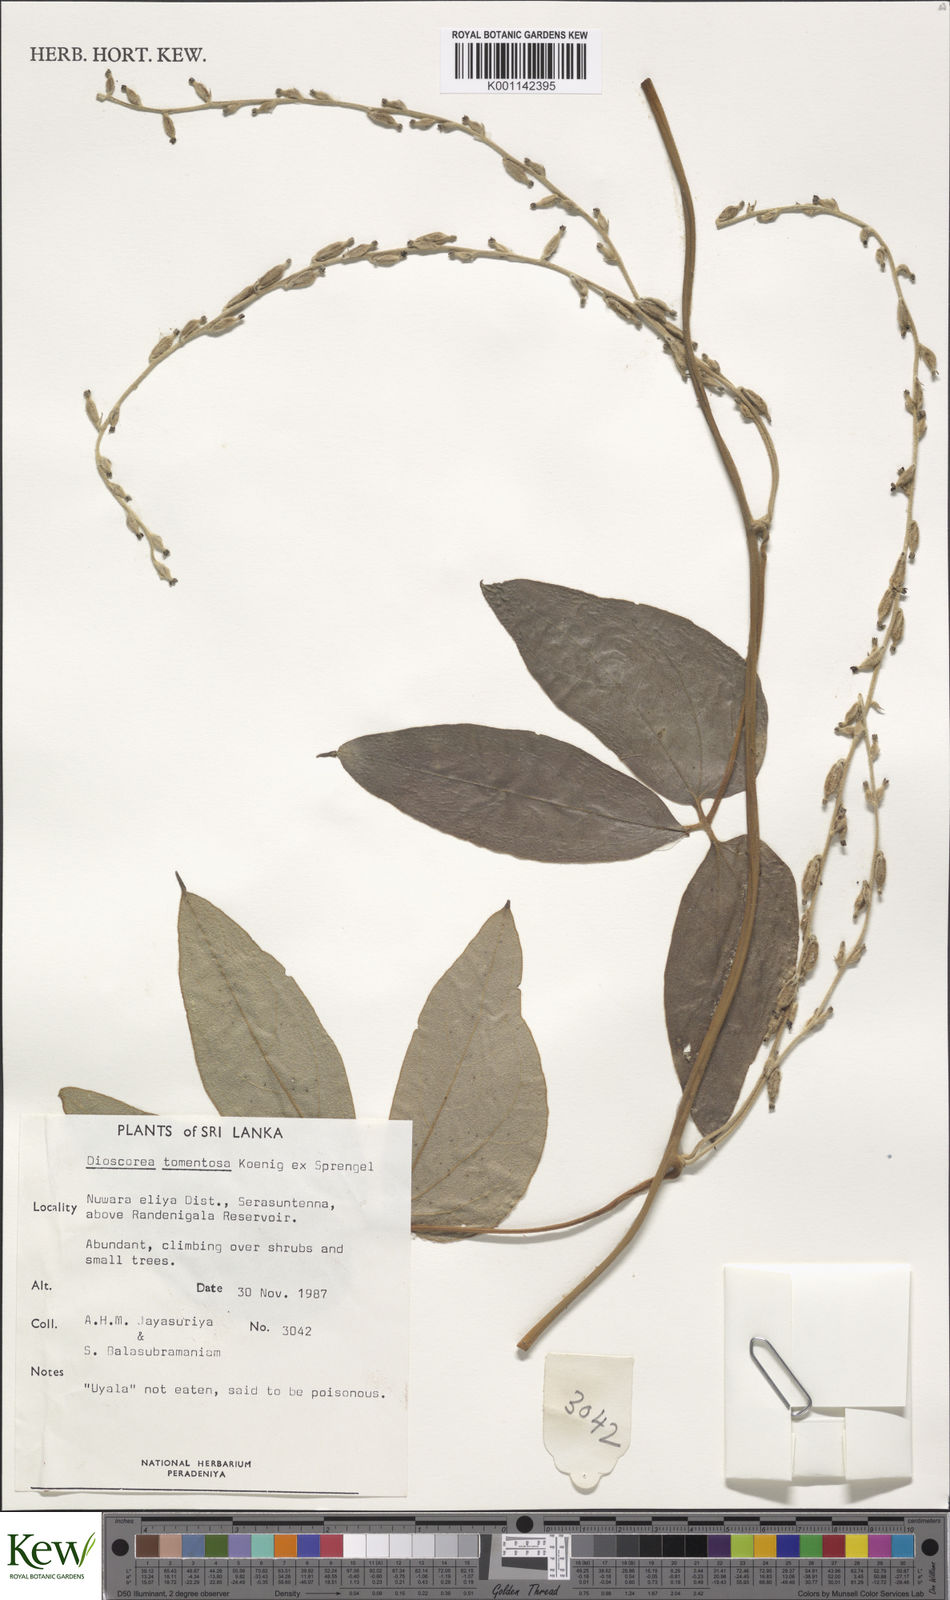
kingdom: Plantae
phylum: Tracheophyta
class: Liliopsida
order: Dioscoreales
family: Dioscoreaceae
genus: Dioscorea
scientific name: Dioscorea
